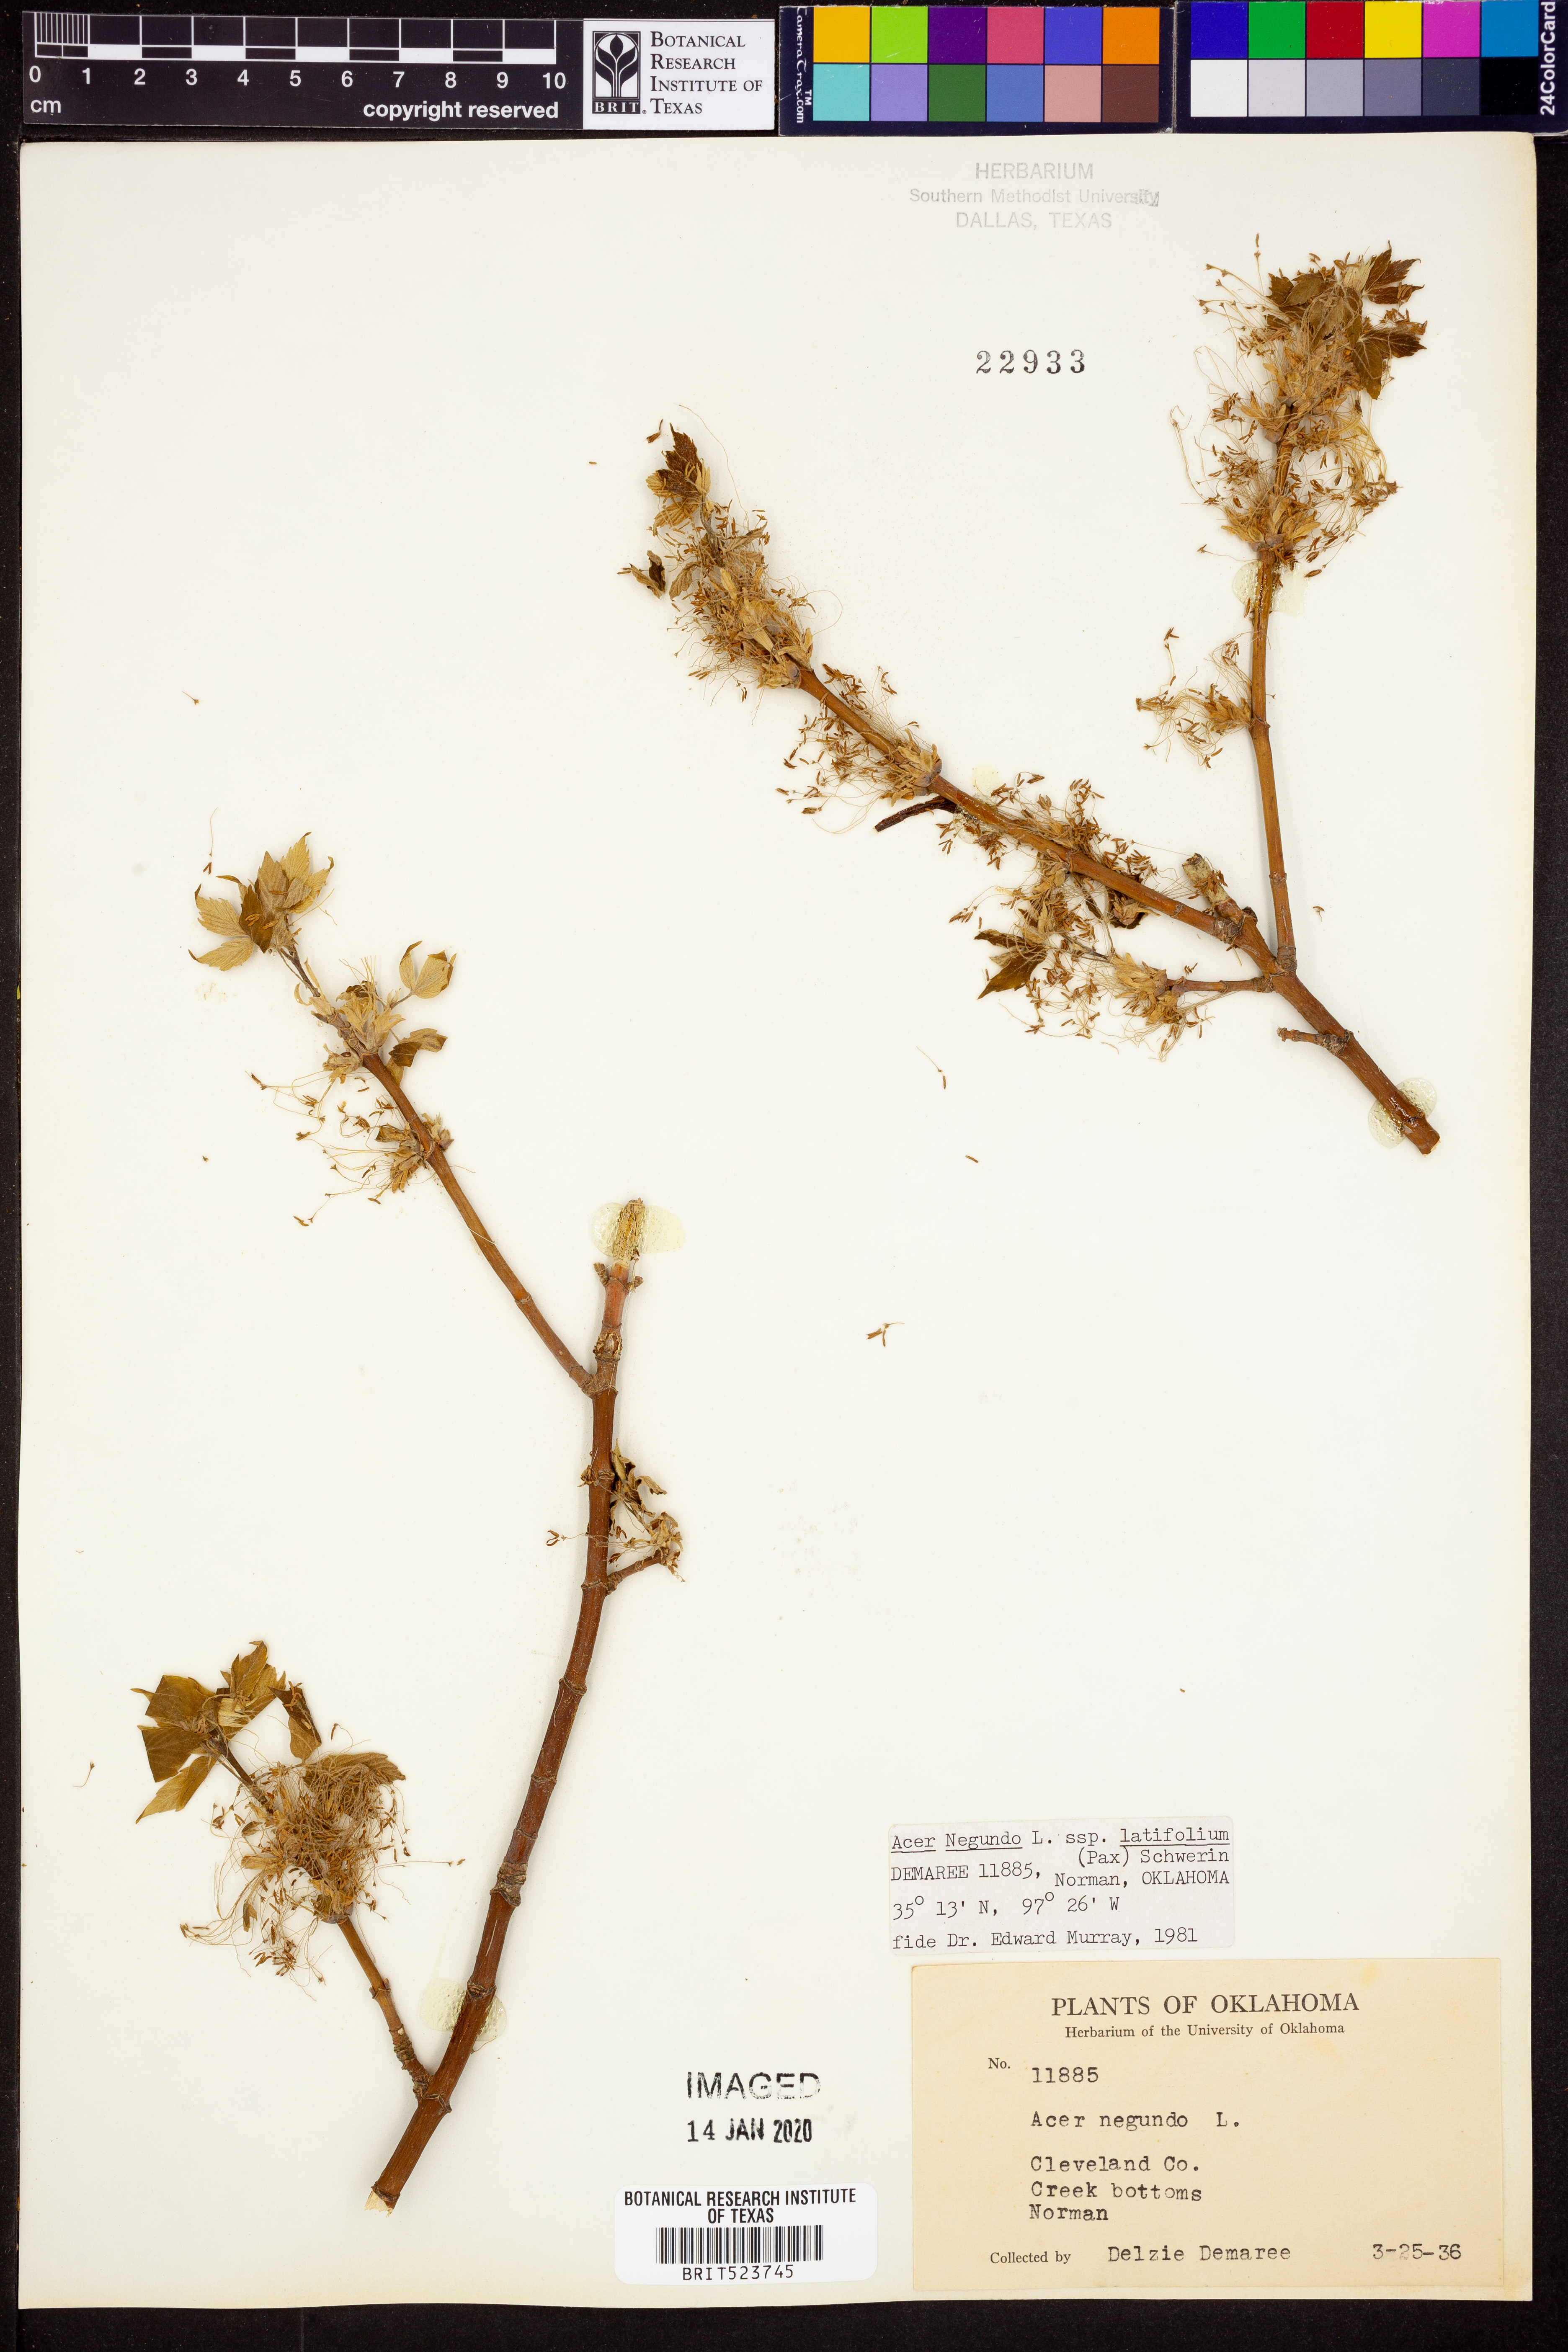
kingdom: Plantae
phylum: Tracheophyta
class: Magnoliopsida
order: Sapindales
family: Sapindaceae
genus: Acer
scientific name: Acer negundo
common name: Ashleaf maple
